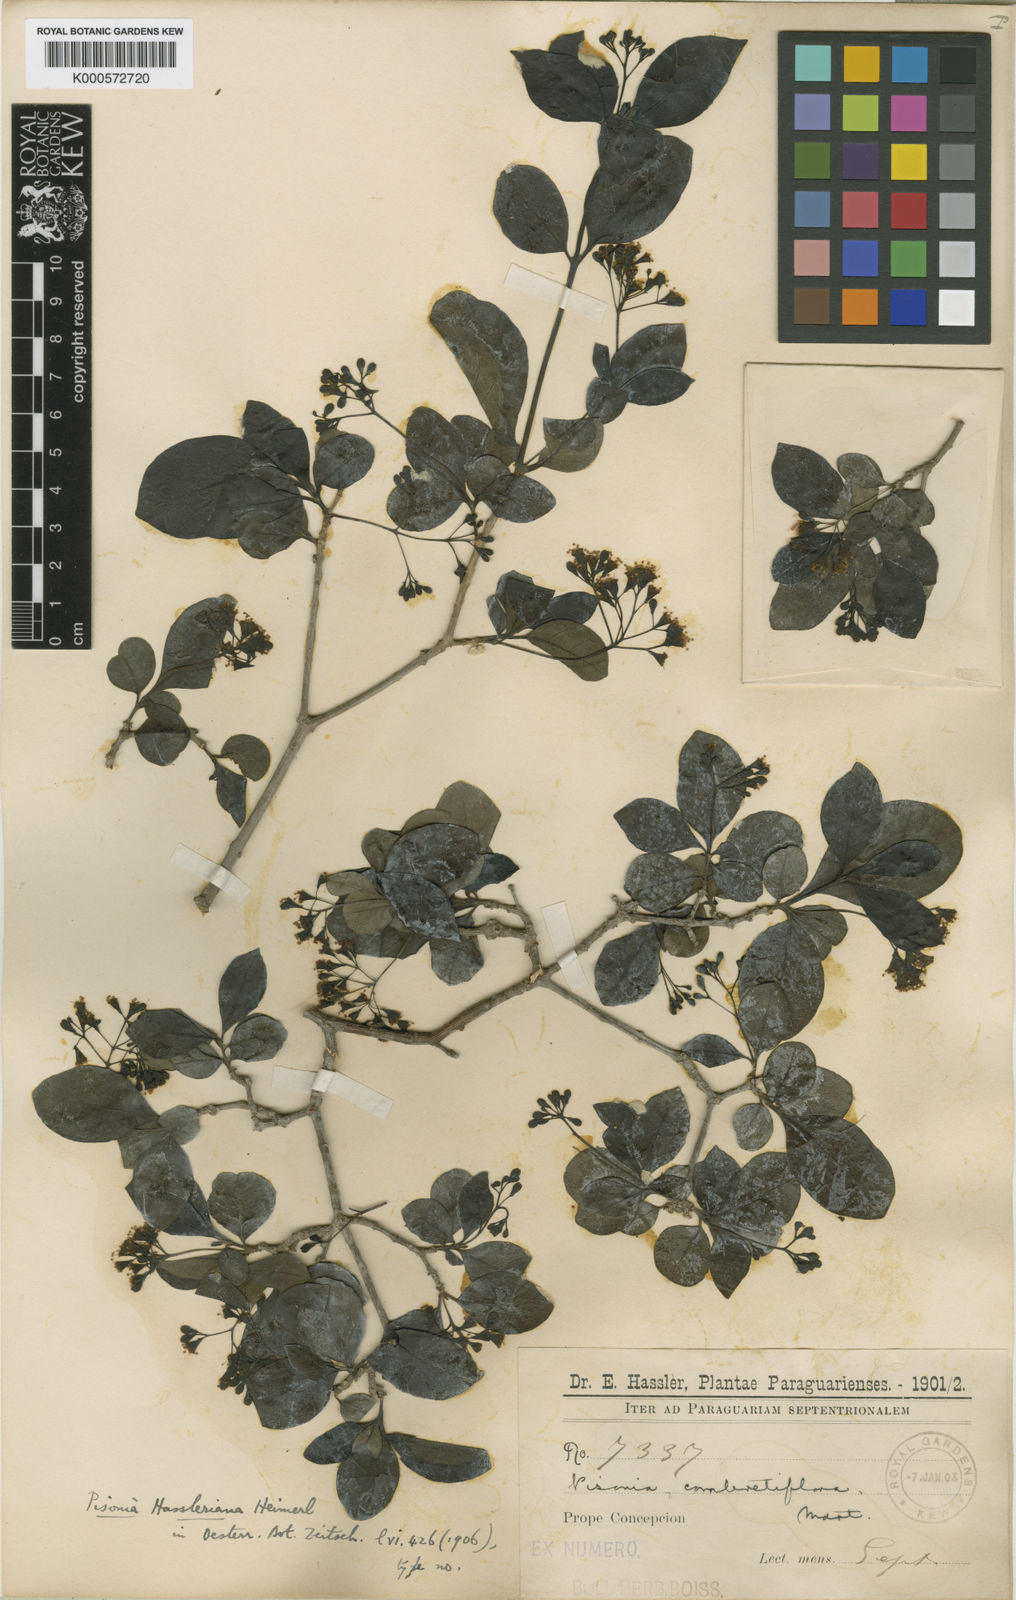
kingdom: Plantae
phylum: Tracheophyta
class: Magnoliopsida
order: Caryophyllales
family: Nyctaginaceae
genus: Guapira
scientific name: Guapira hasslerana
